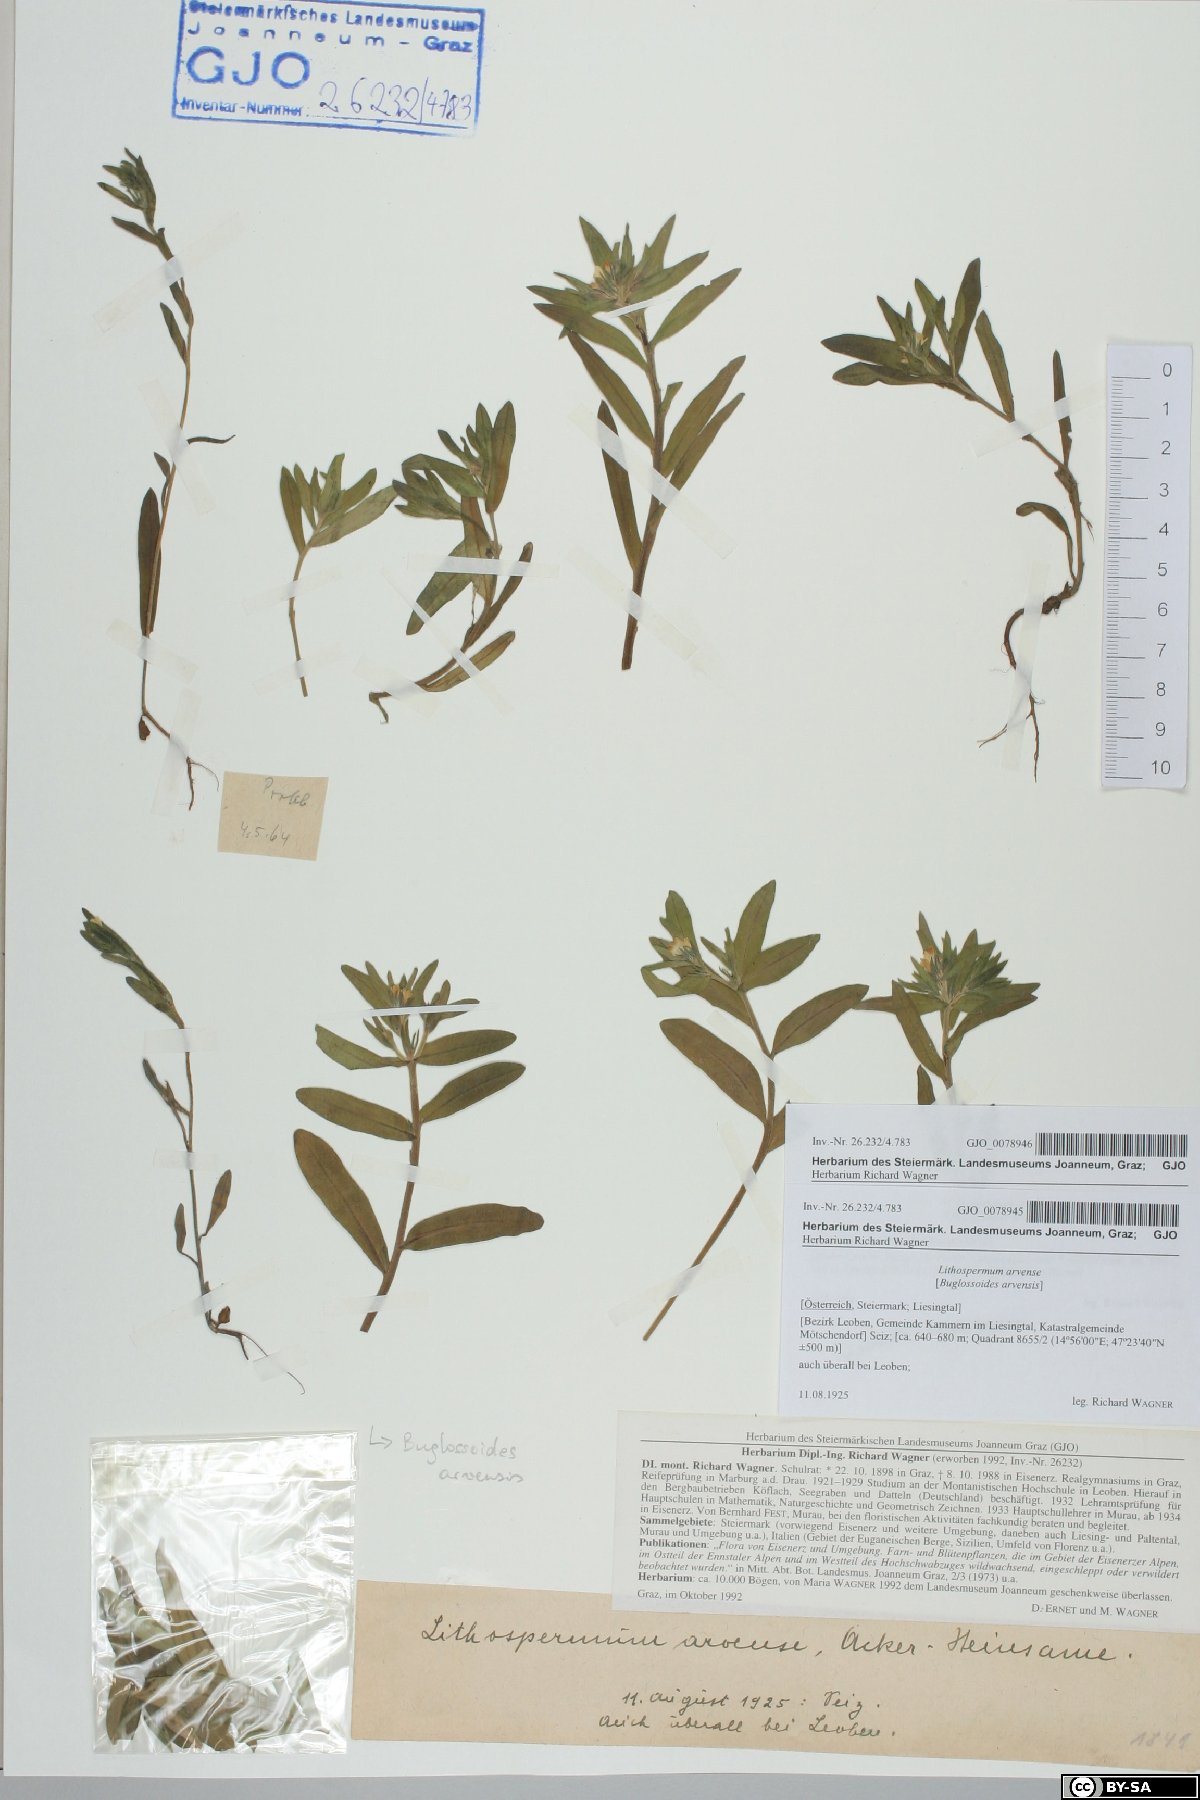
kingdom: Plantae
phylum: Tracheophyta
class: Magnoliopsida
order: Boraginales
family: Boraginaceae
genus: Buglossoides
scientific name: Buglossoides arvensis
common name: Corn gromwell
